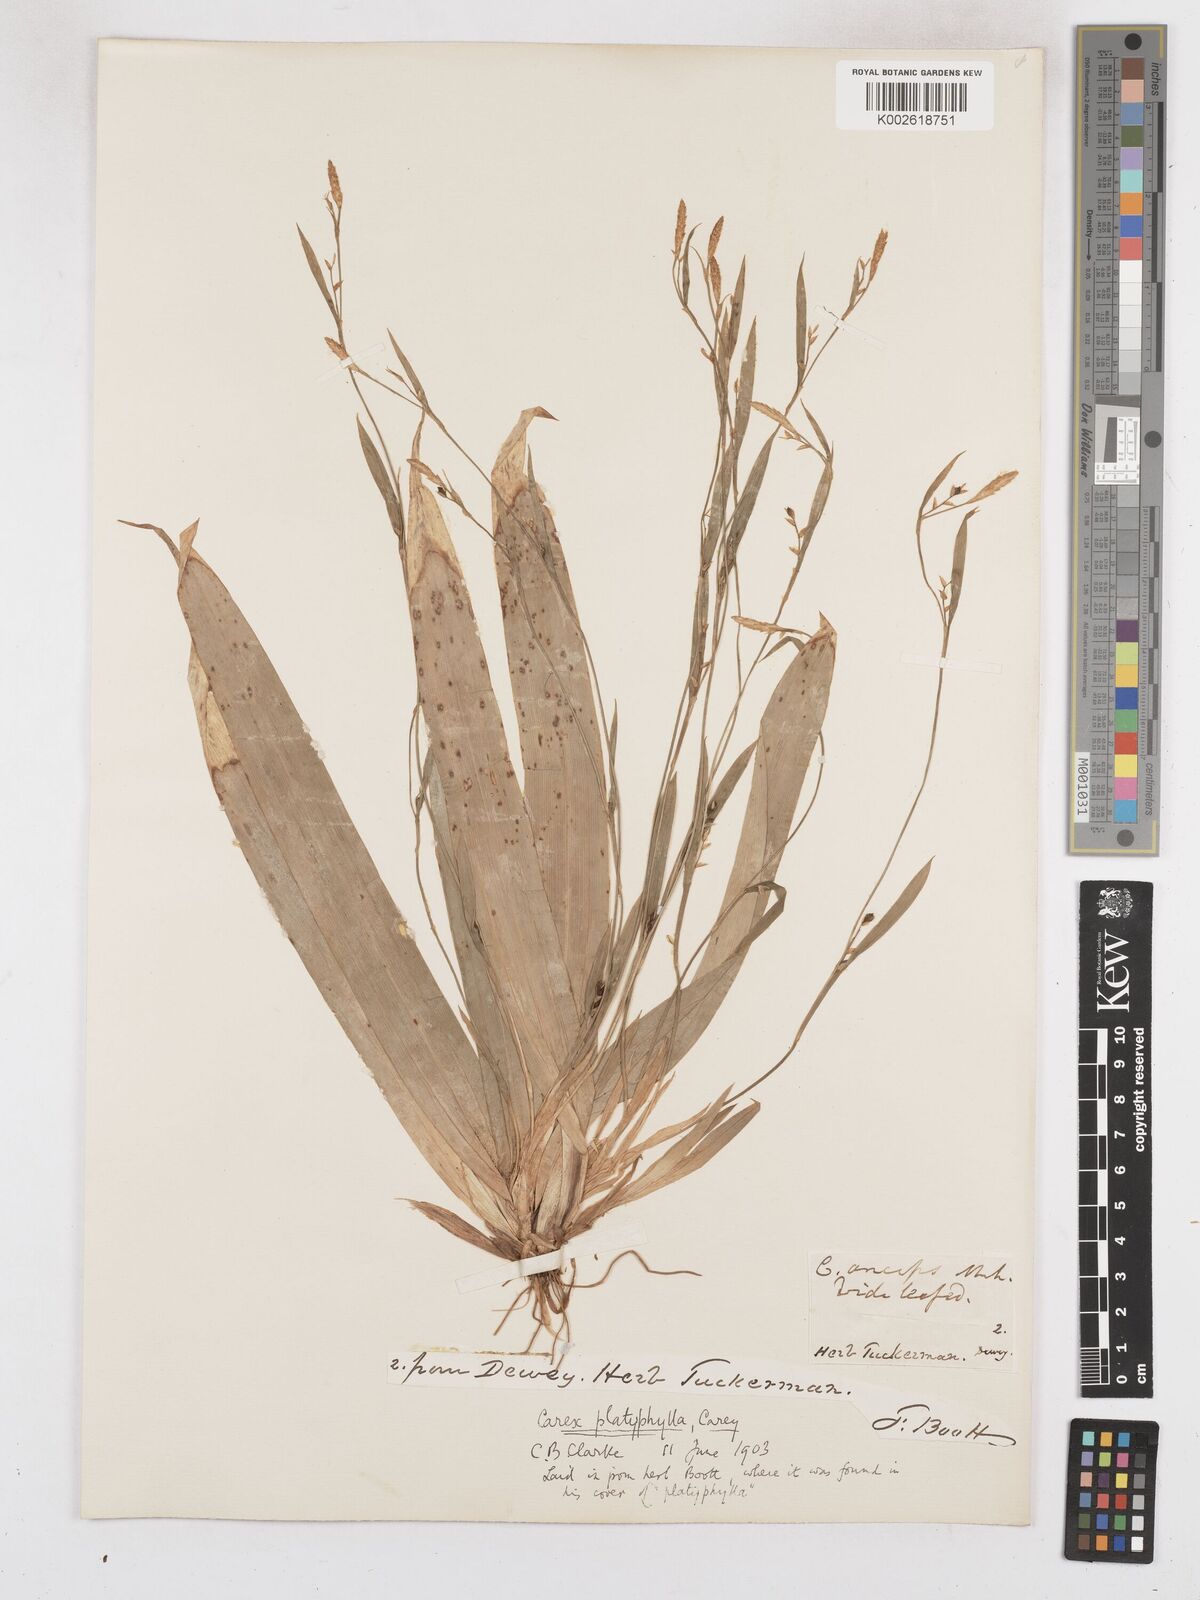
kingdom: Plantae
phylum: Tracheophyta
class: Liliopsida
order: Poales
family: Cyperaceae
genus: Carex
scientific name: Carex platyphylla
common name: Broad-leaved sedge
